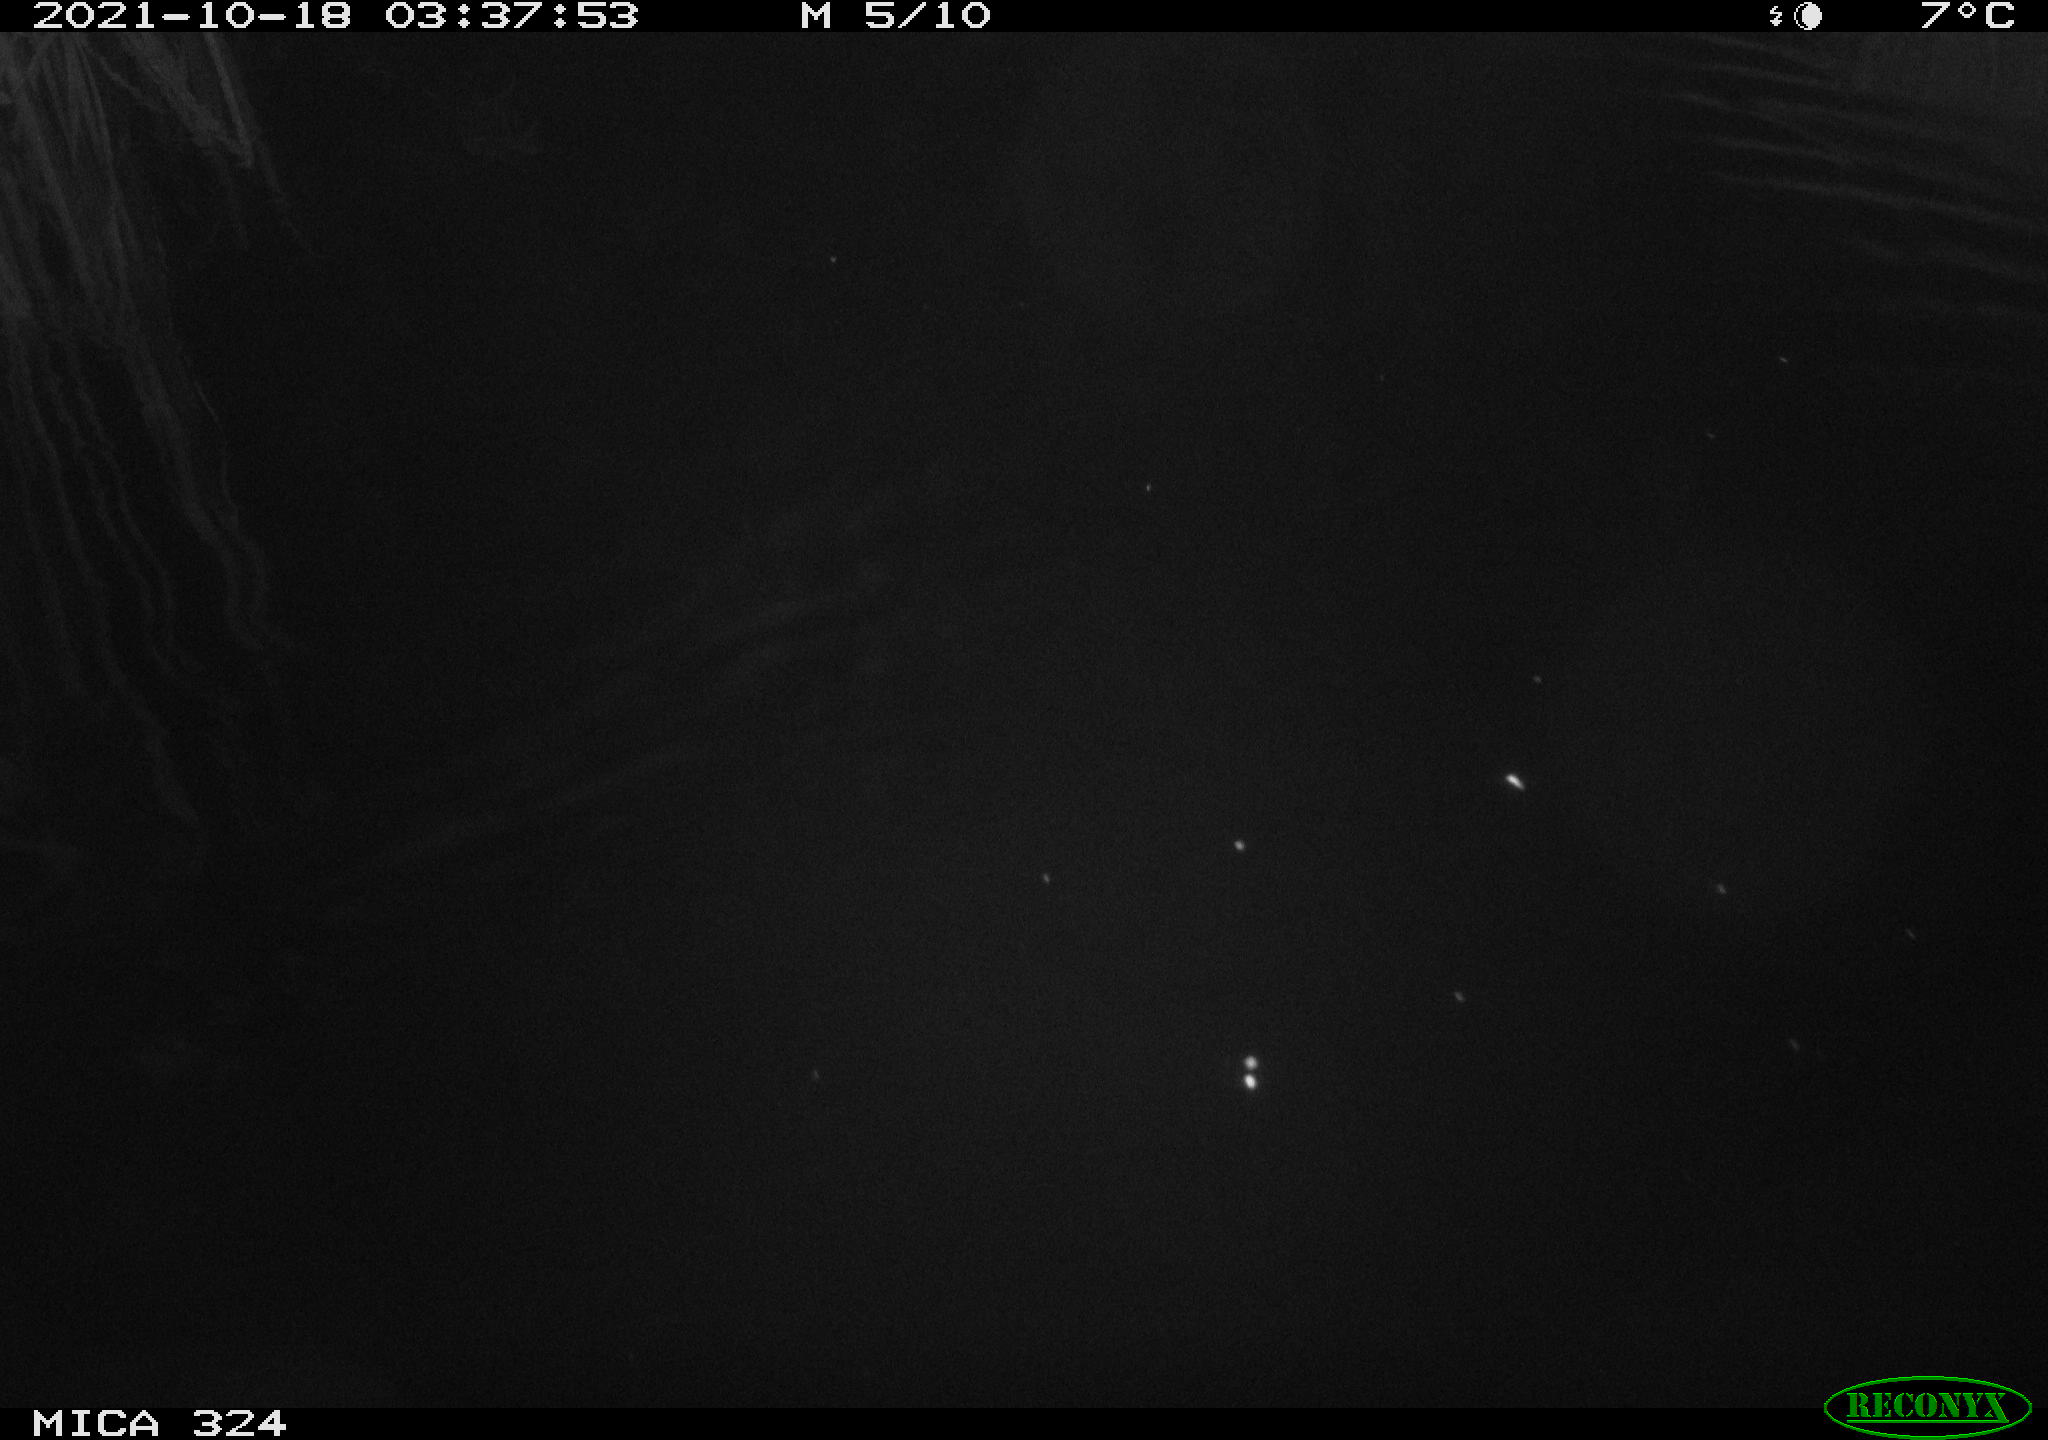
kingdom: Animalia
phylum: Chordata
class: Mammalia
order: Rodentia
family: Cricetidae
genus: Ondatra
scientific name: Ondatra zibethicus
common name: Muskrat
